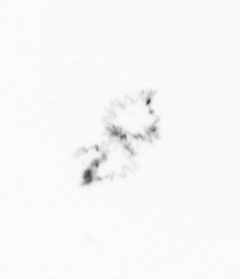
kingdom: Chromista
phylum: Ochrophyta
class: Bacillariophyceae
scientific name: Bacillariophyceae
